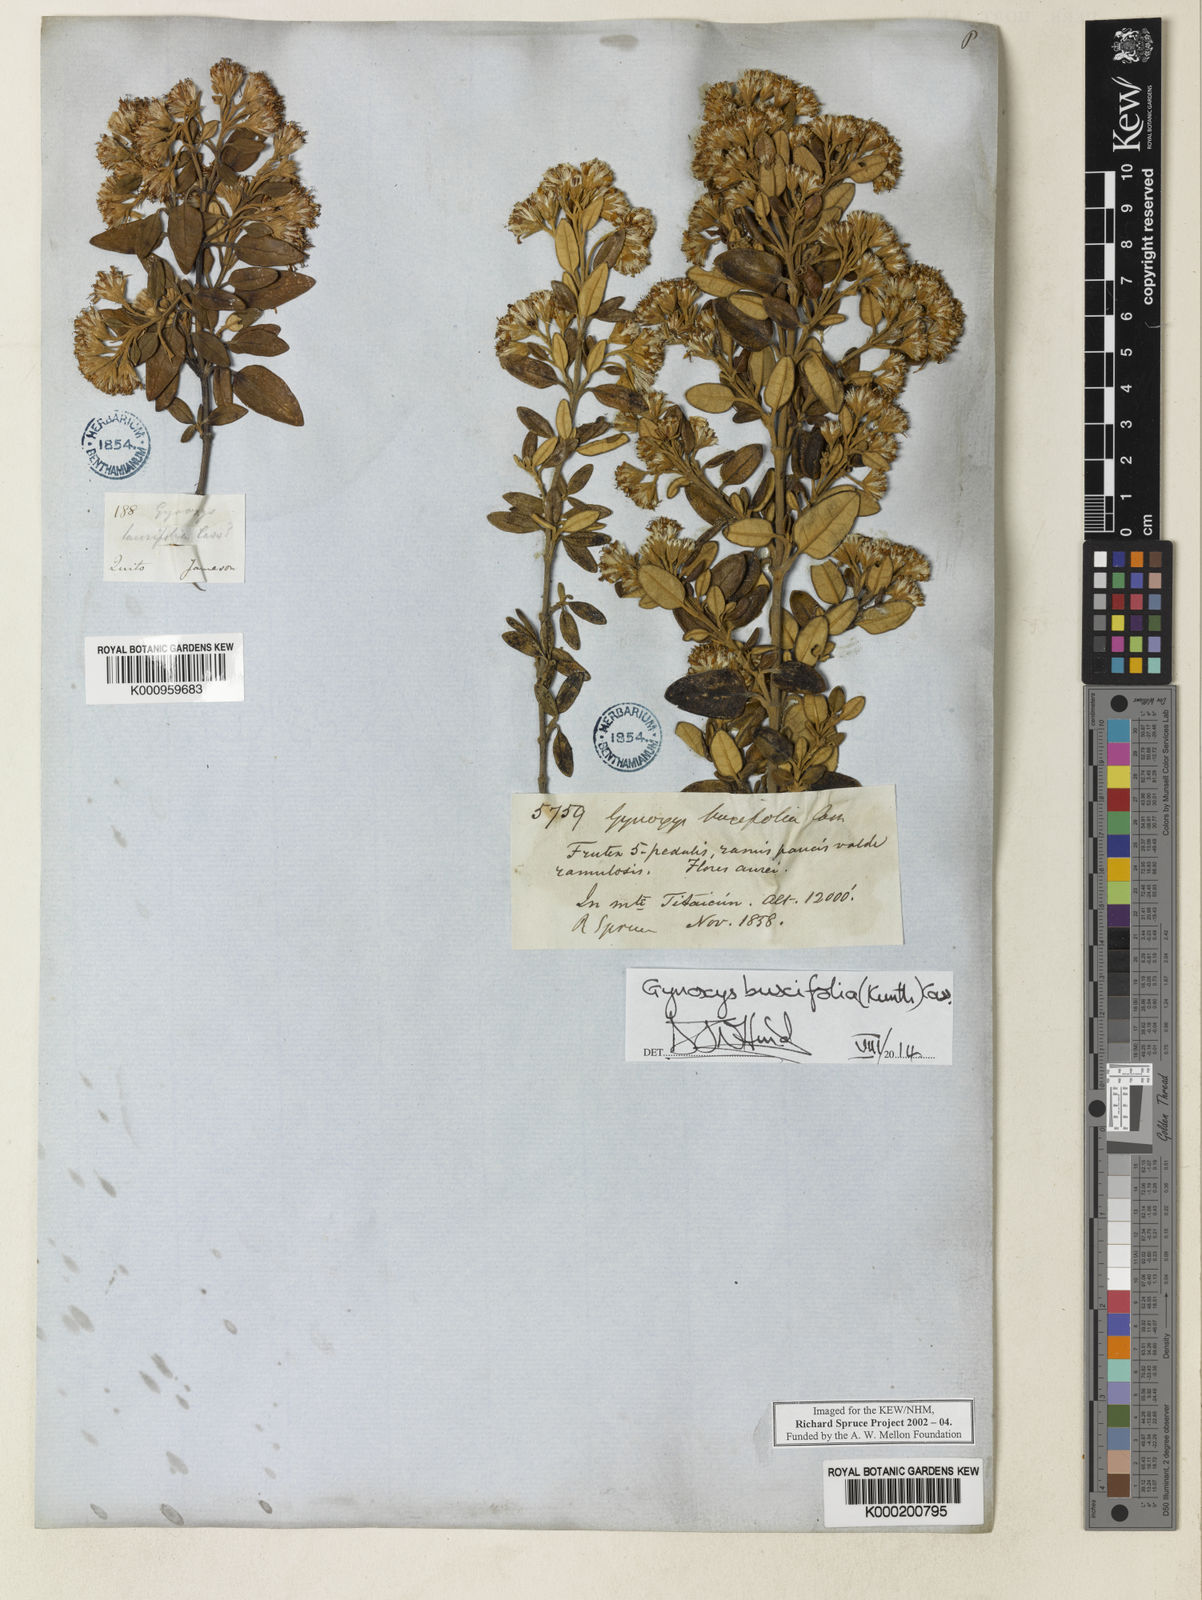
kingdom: Plantae
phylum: Tracheophyta
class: Magnoliopsida
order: Asterales
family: Asteraceae
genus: Gynoxys
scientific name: Gynoxys buxifolia
